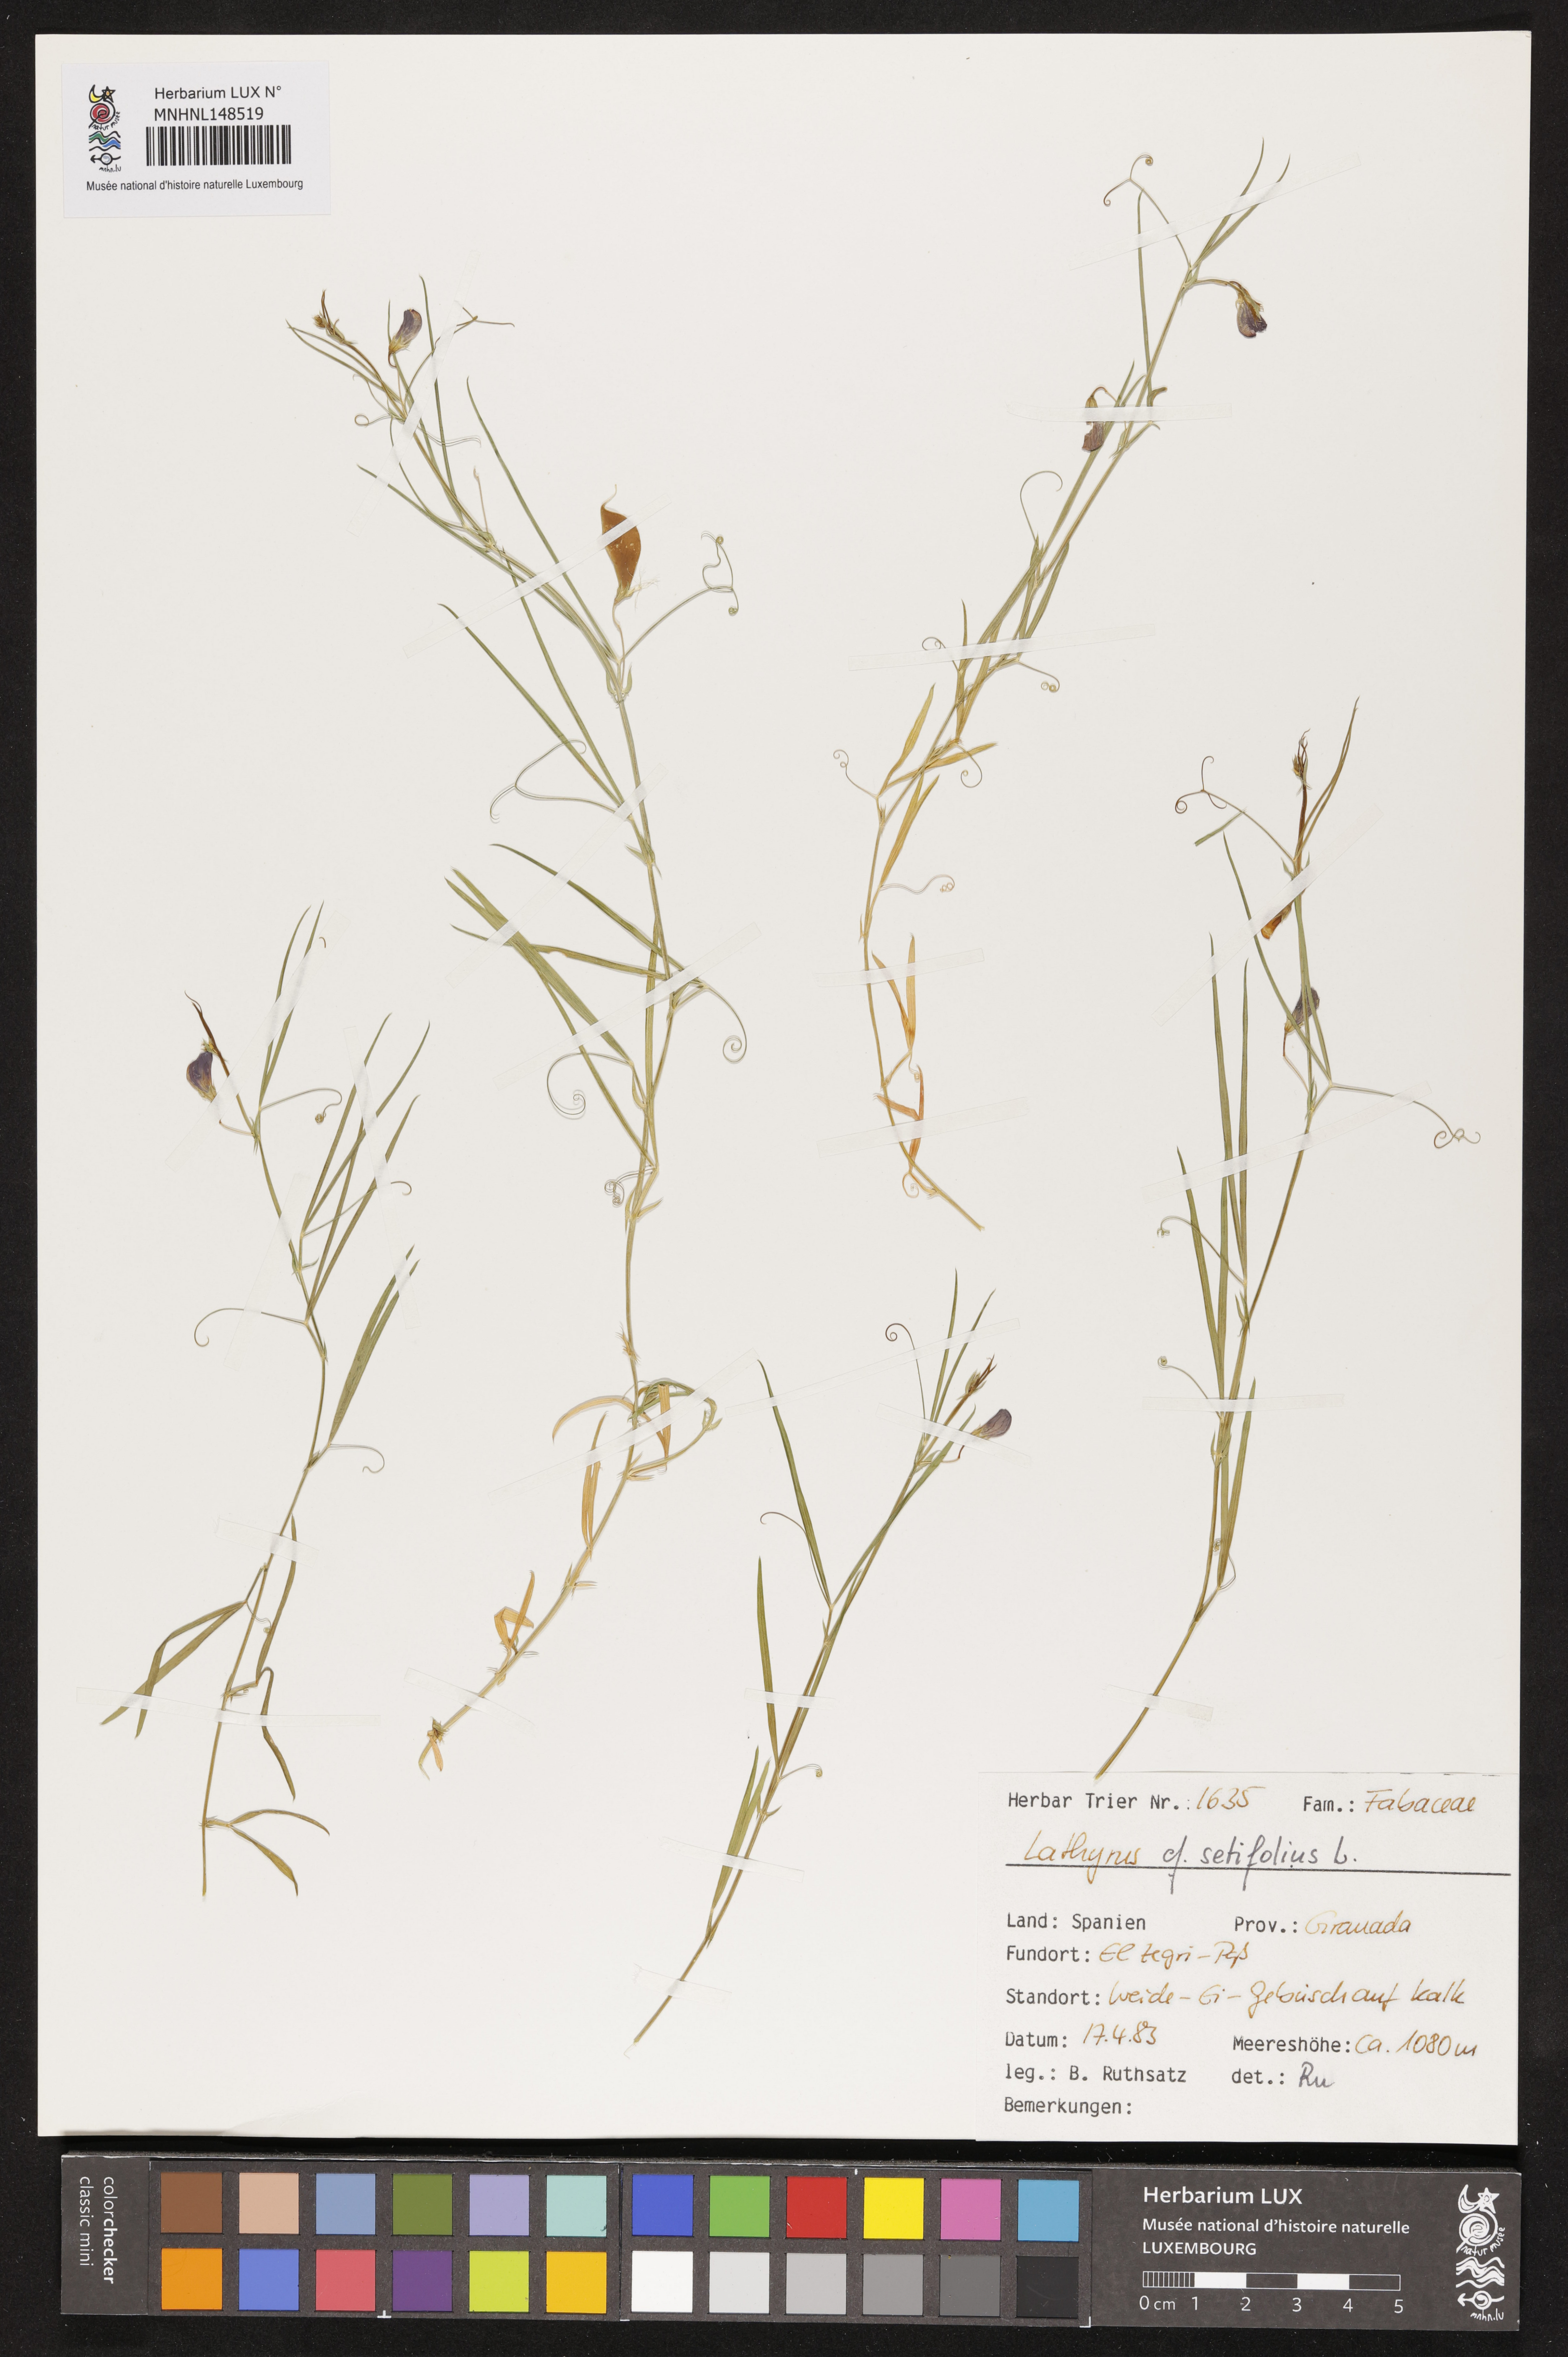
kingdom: Plantae
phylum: Tracheophyta
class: Magnoliopsida
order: Fabales
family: Fabaceae
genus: Lathyrus
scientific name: Lathyrus setifolius
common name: Brown vetchling
